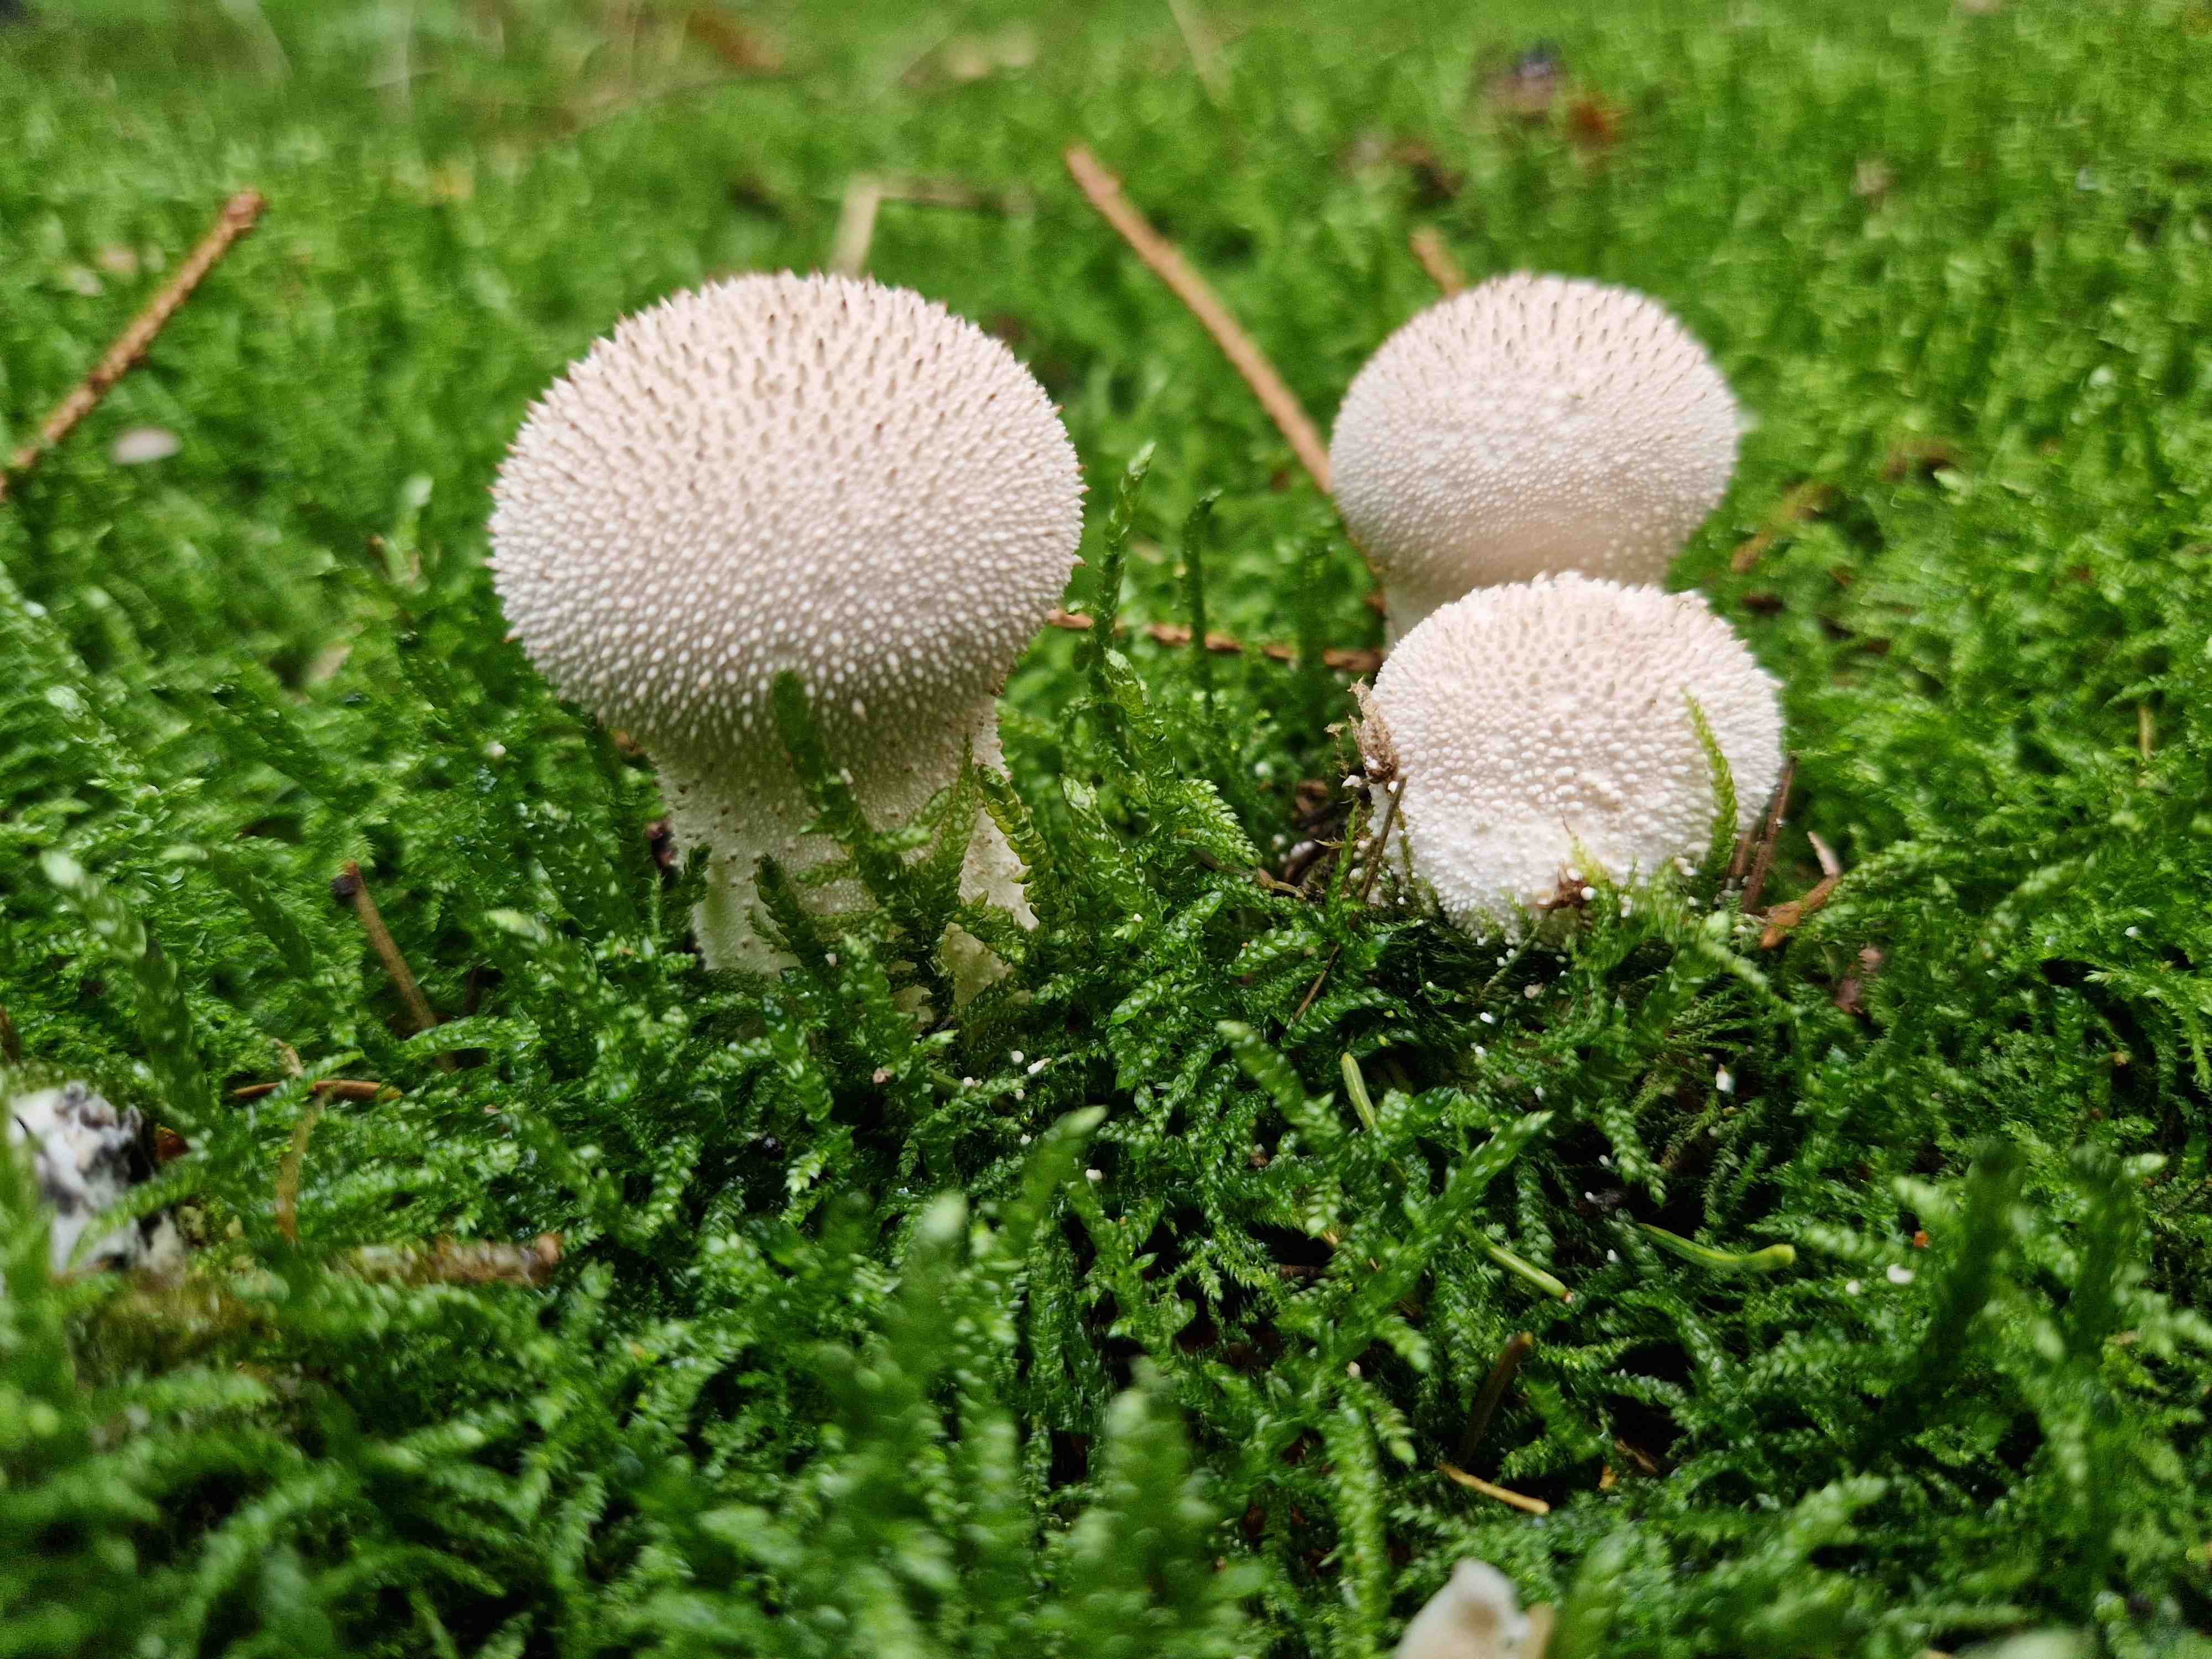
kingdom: Fungi
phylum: Basidiomycota
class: Agaricomycetes
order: Agaricales
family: Lycoperdaceae
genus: Lycoperdon
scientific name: Lycoperdon perlatum
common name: krystal-støvbold
